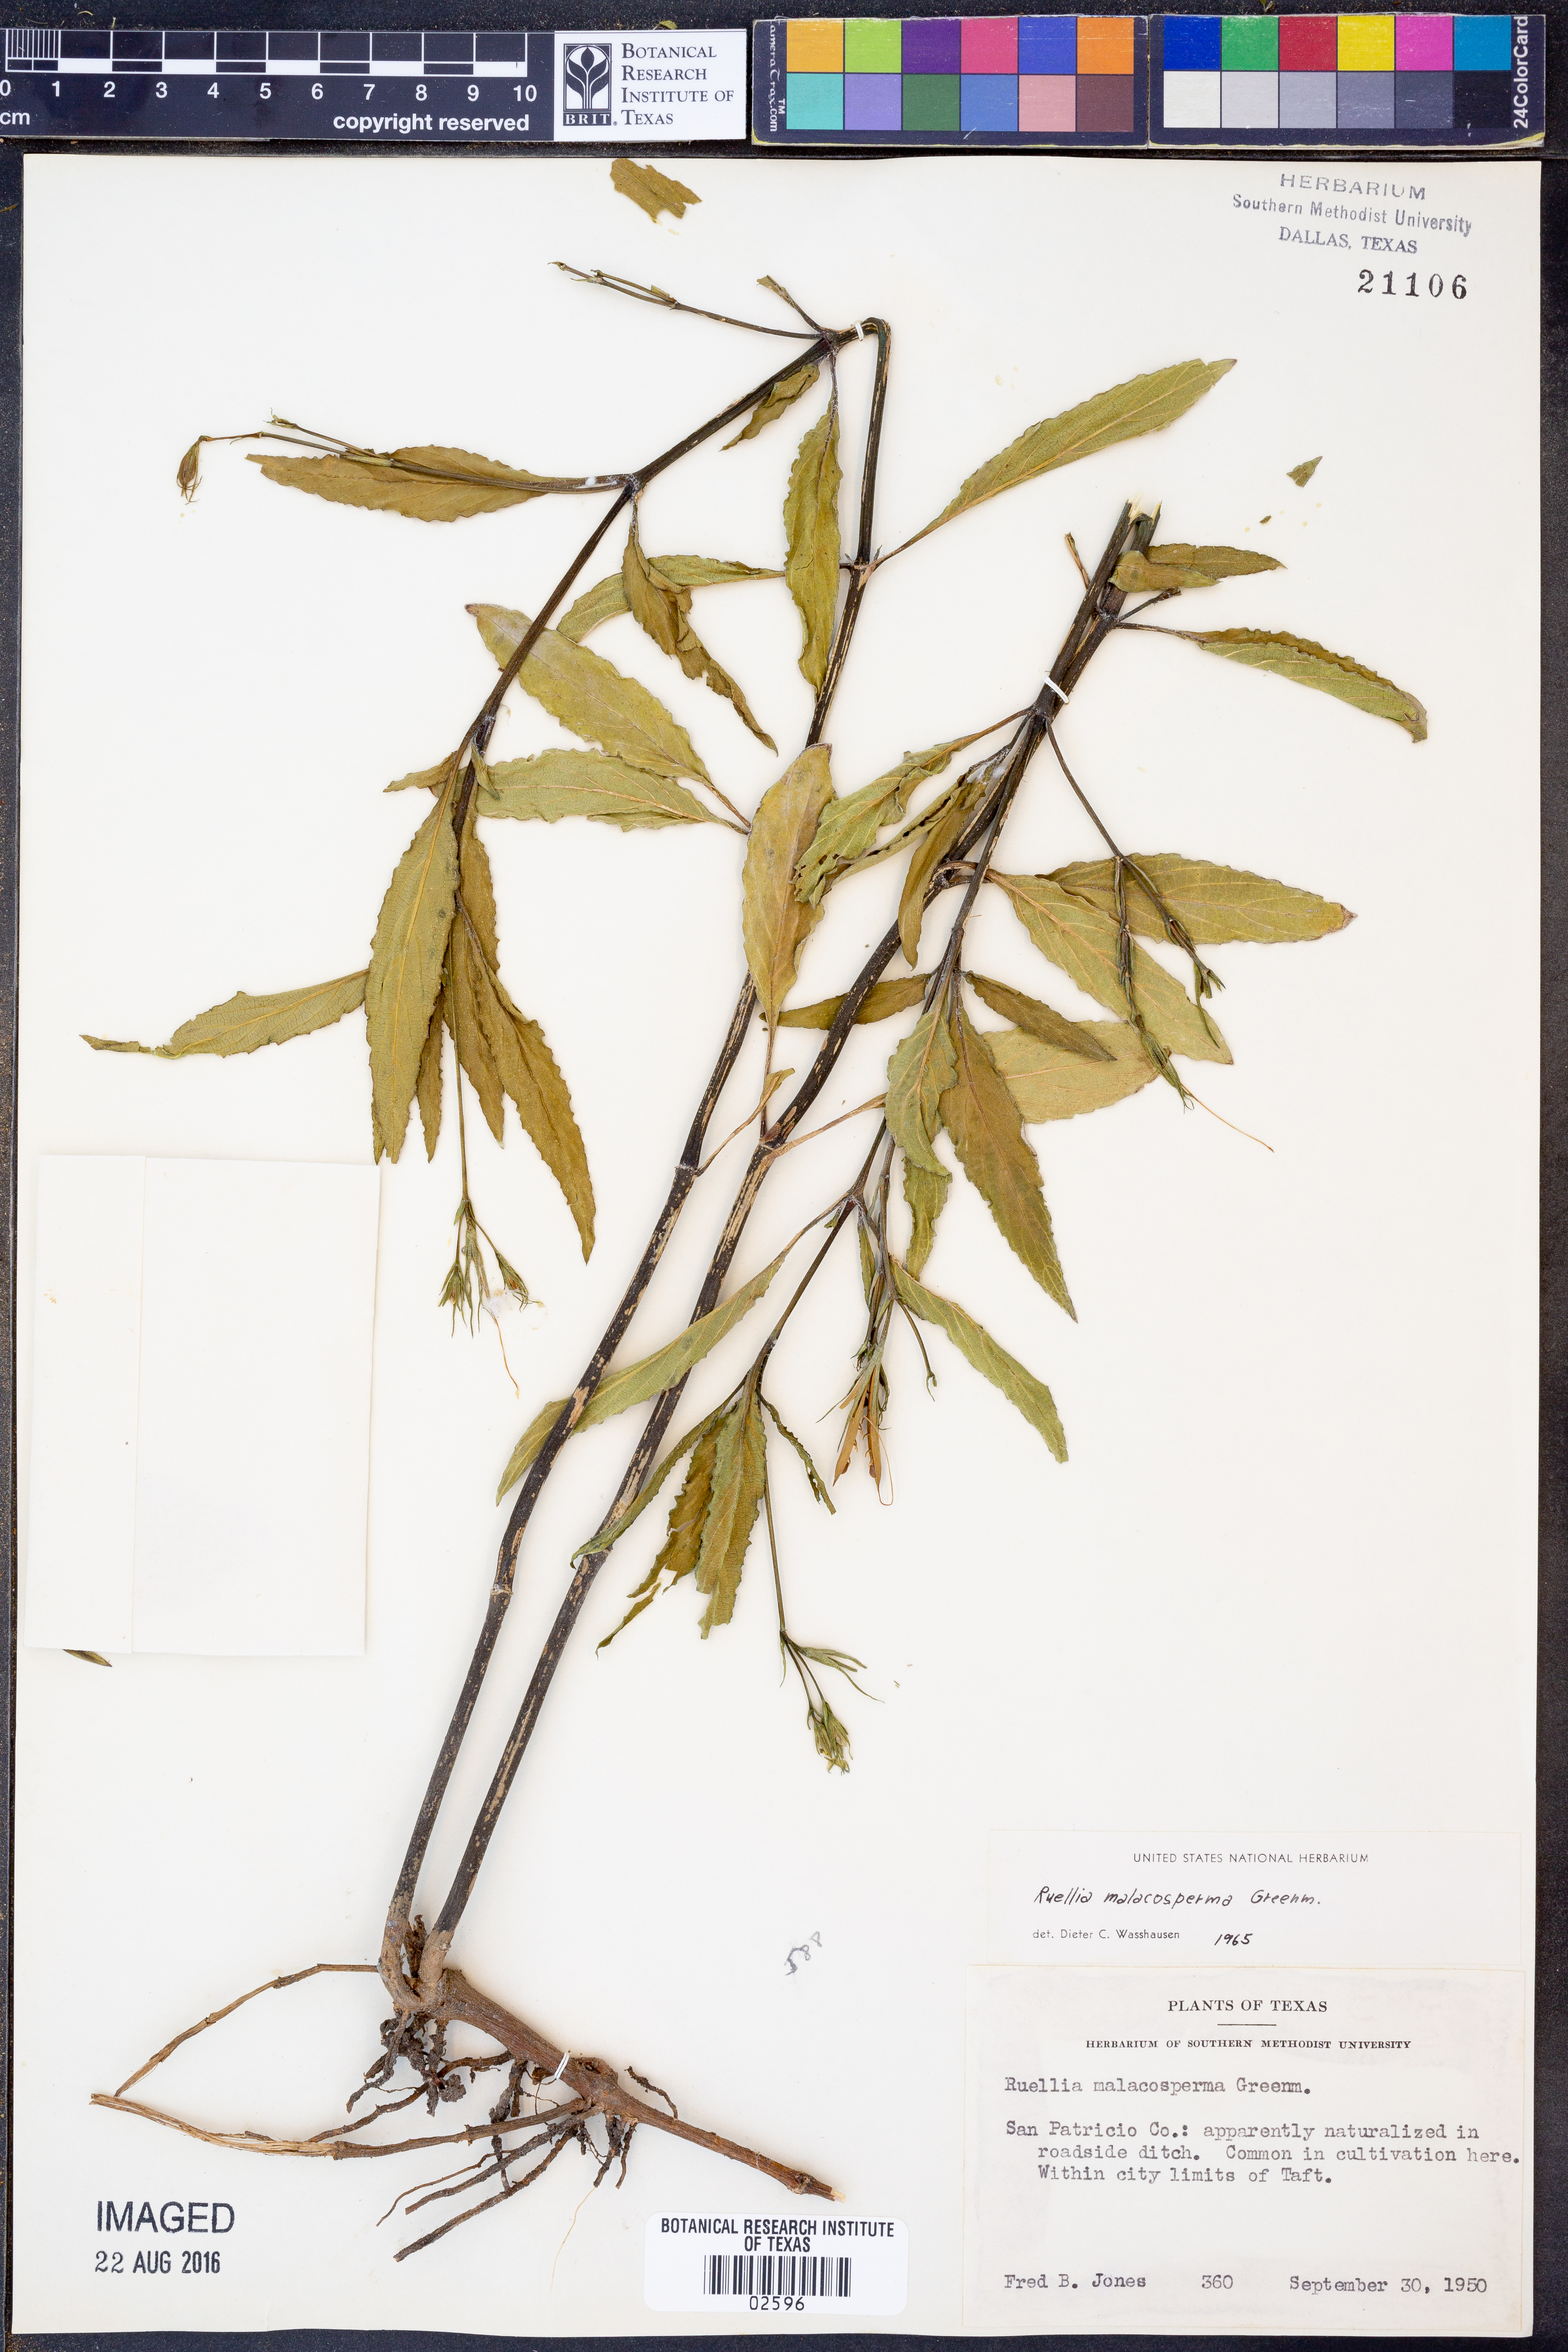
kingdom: Plantae
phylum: Tracheophyta
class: Magnoliopsida
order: Lamiales
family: Acanthaceae
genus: Ruellia
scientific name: Ruellia malacosperma
